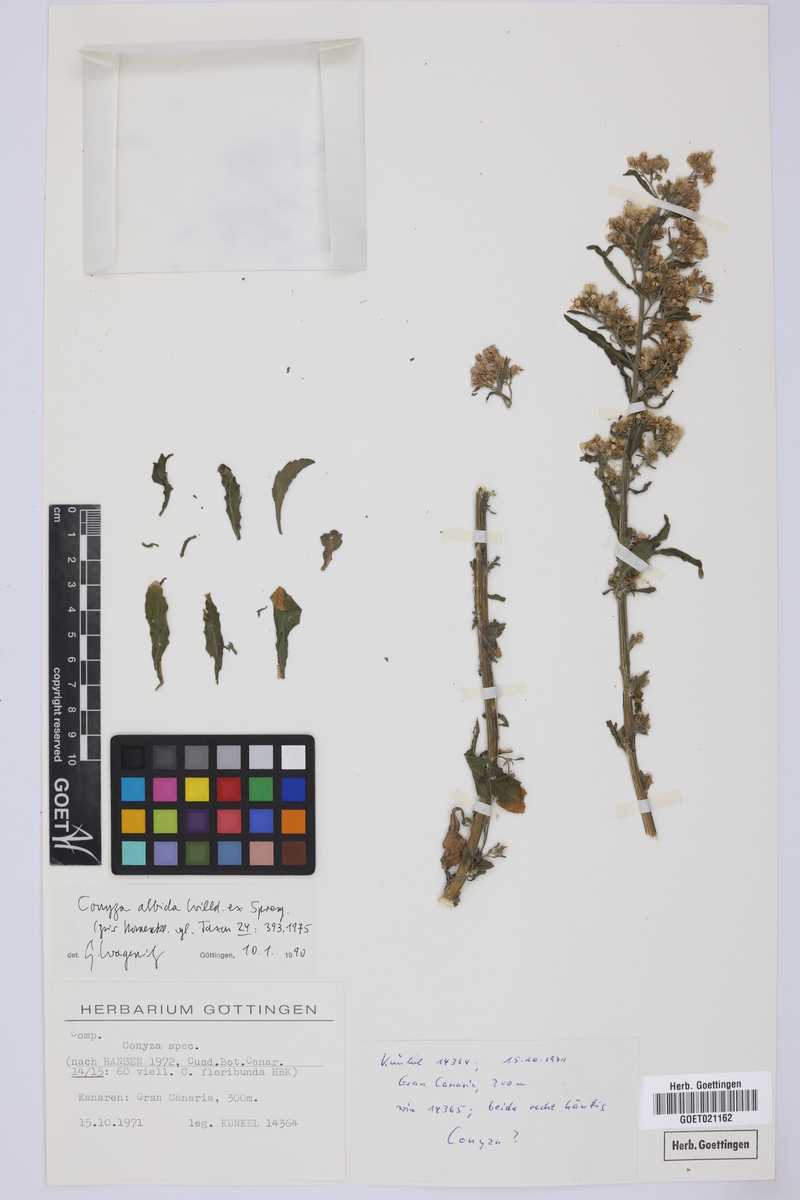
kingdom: Plantae
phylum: Tracheophyta
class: Magnoliopsida
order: Asterales
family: Asteraceae
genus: Erigeron
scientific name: Erigeron floribundus
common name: Bilbao fleabane
